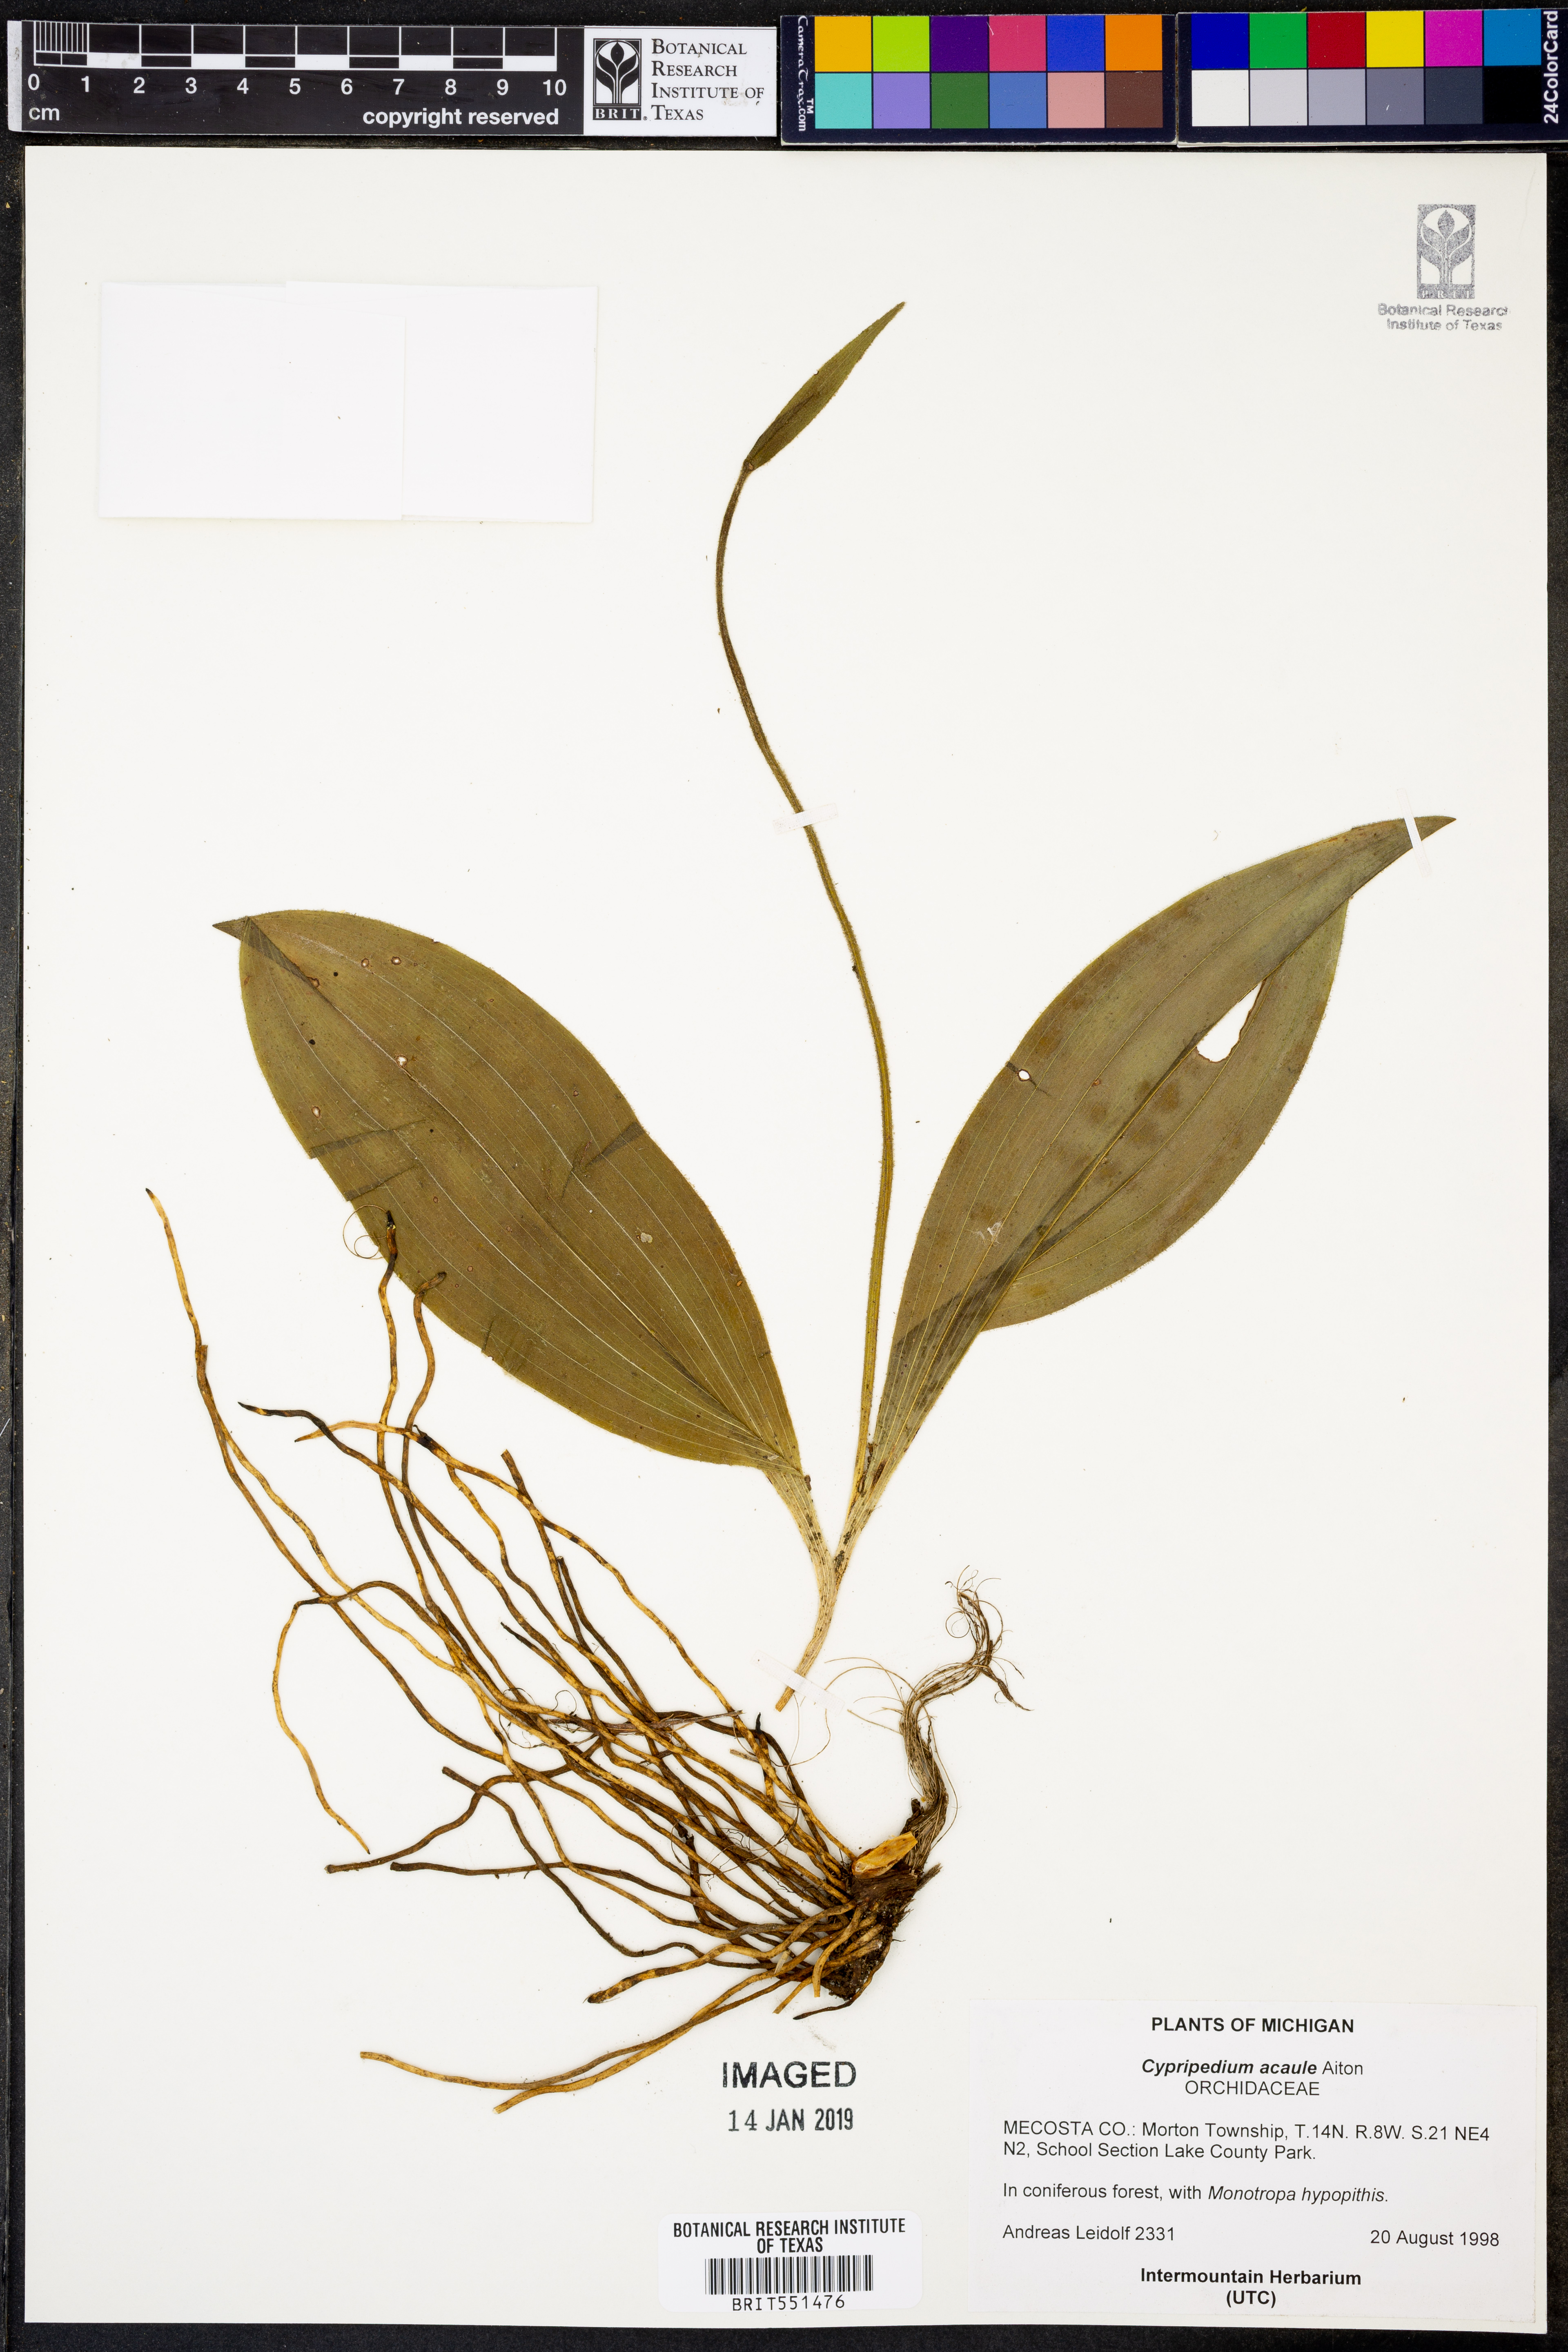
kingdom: Plantae
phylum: Tracheophyta
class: Liliopsida
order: Asparagales
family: Orchidaceae
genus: Cypripedium
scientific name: Cypripedium acaule
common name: Pink lady's-slipper
